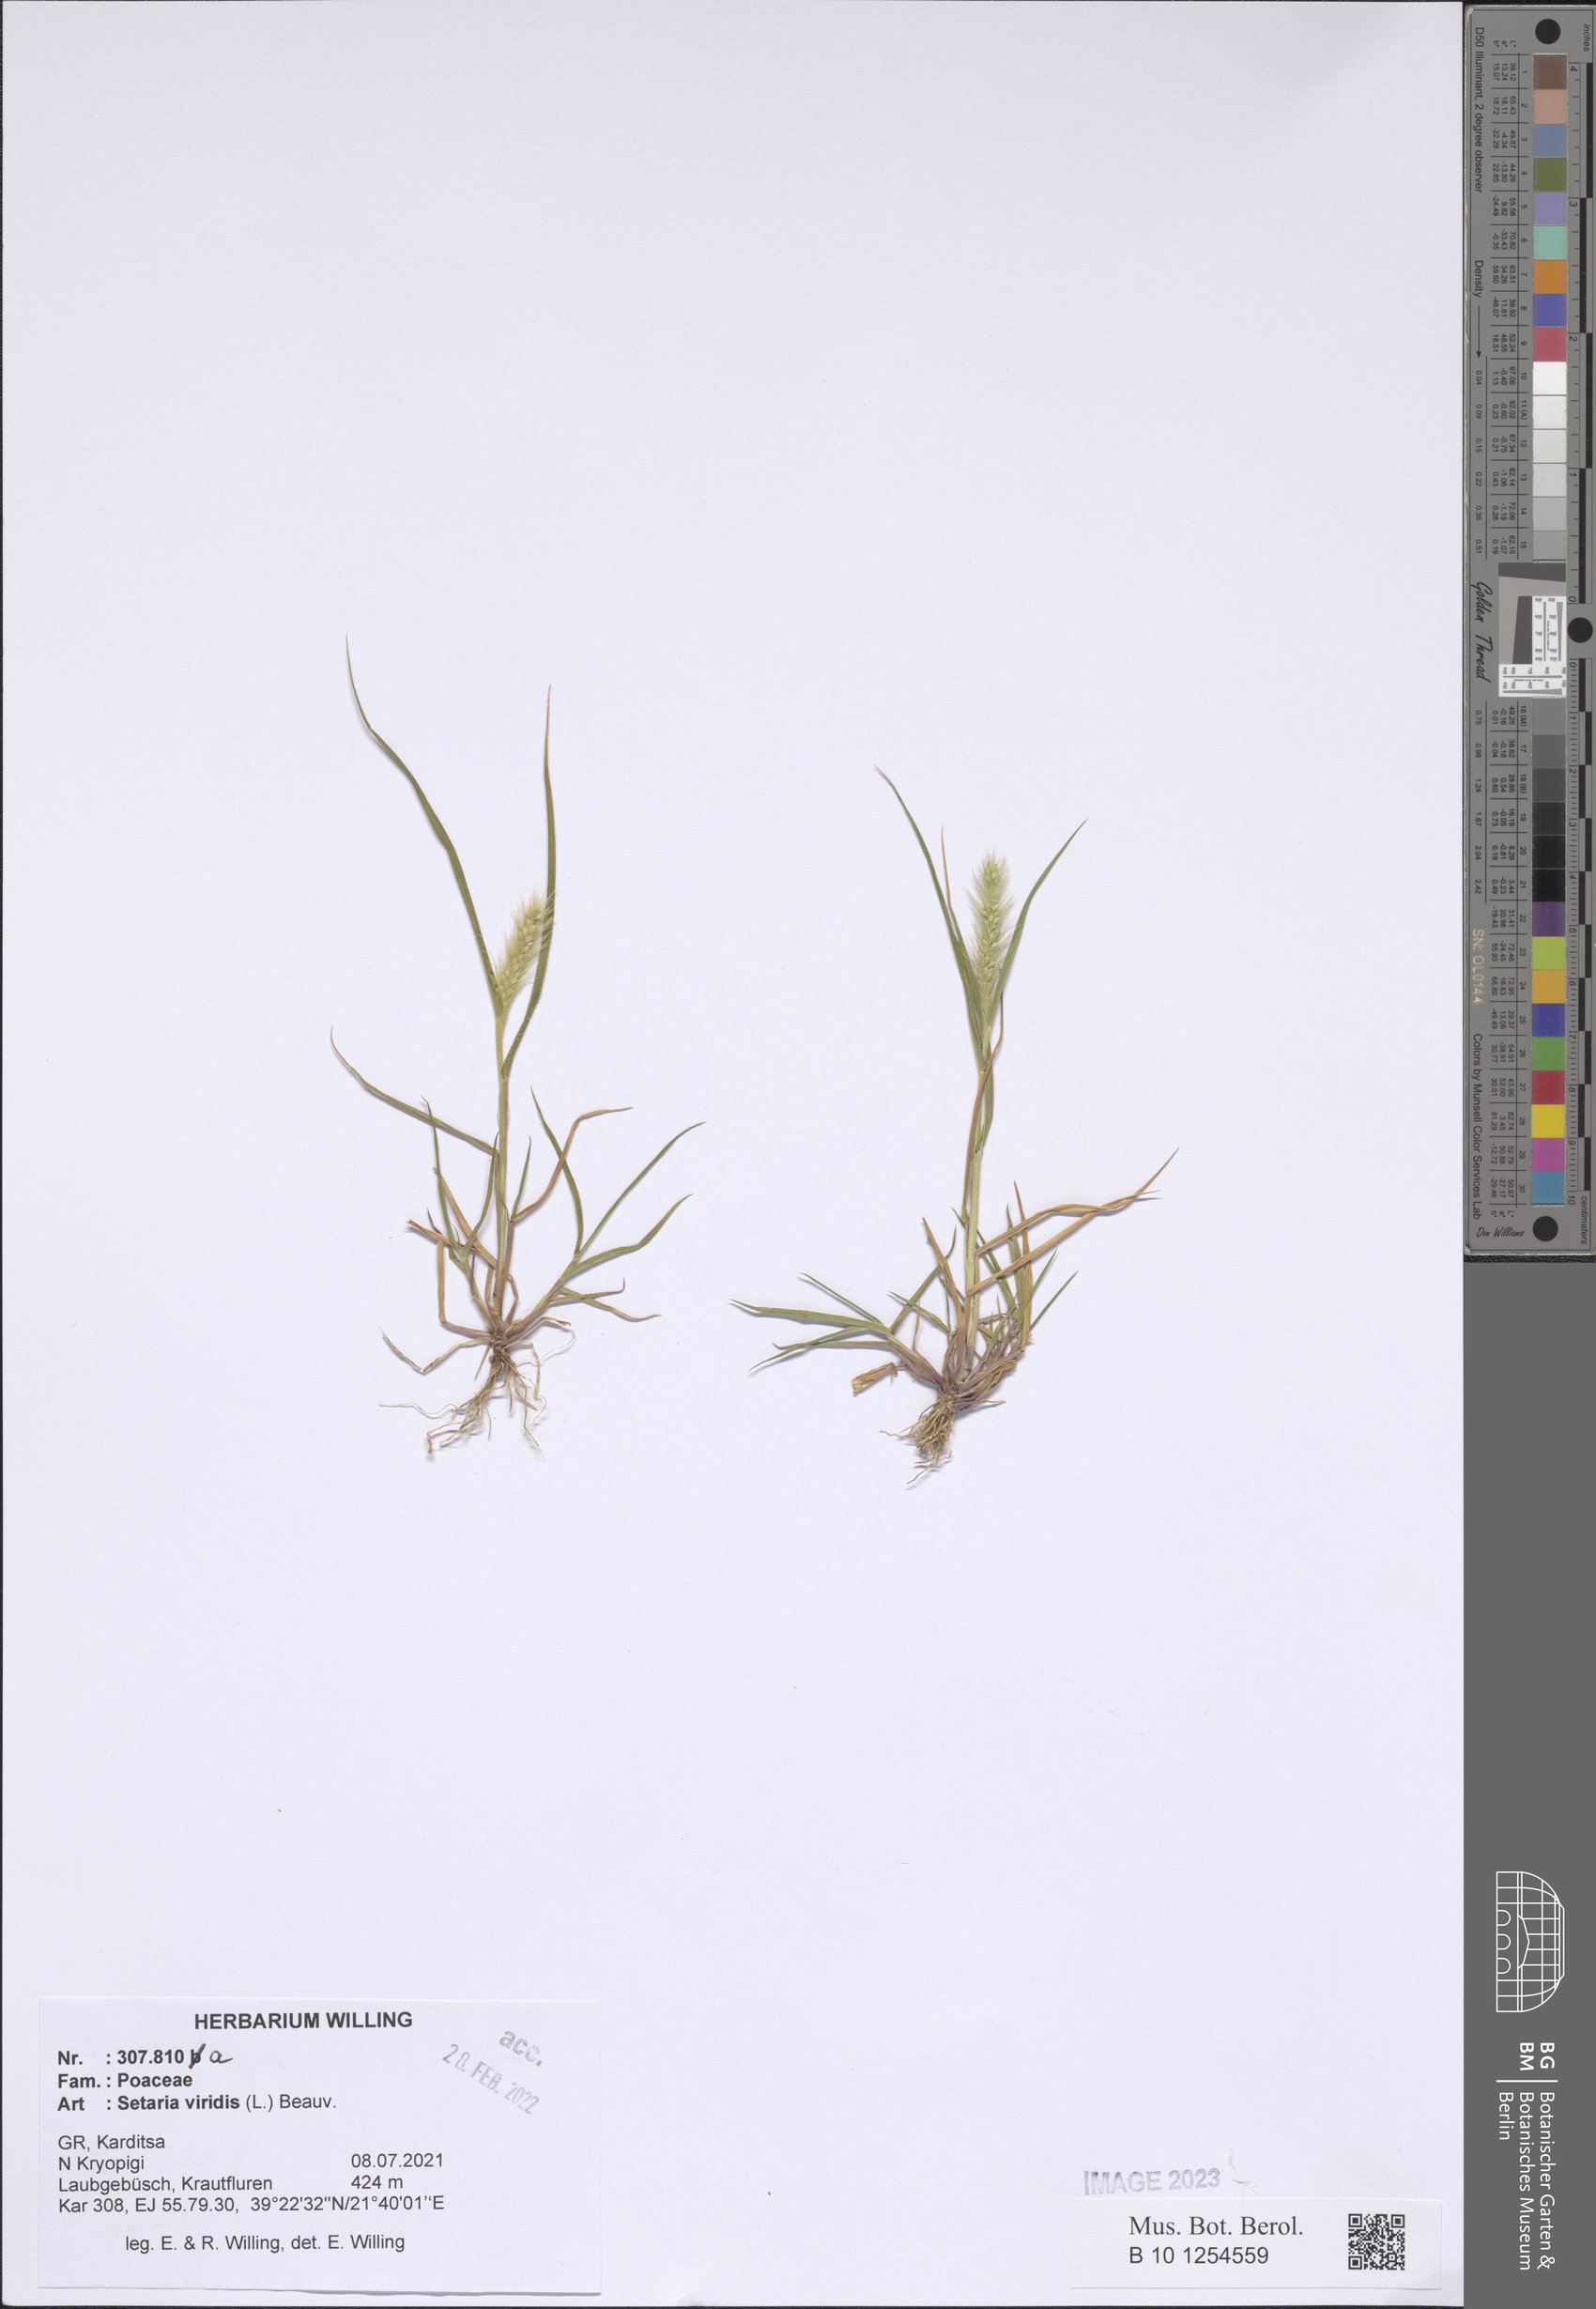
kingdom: Plantae
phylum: Tracheophyta
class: Liliopsida
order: Poales
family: Poaceae
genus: Setaria
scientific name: Setaria viridis
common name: Green bristlegrass
